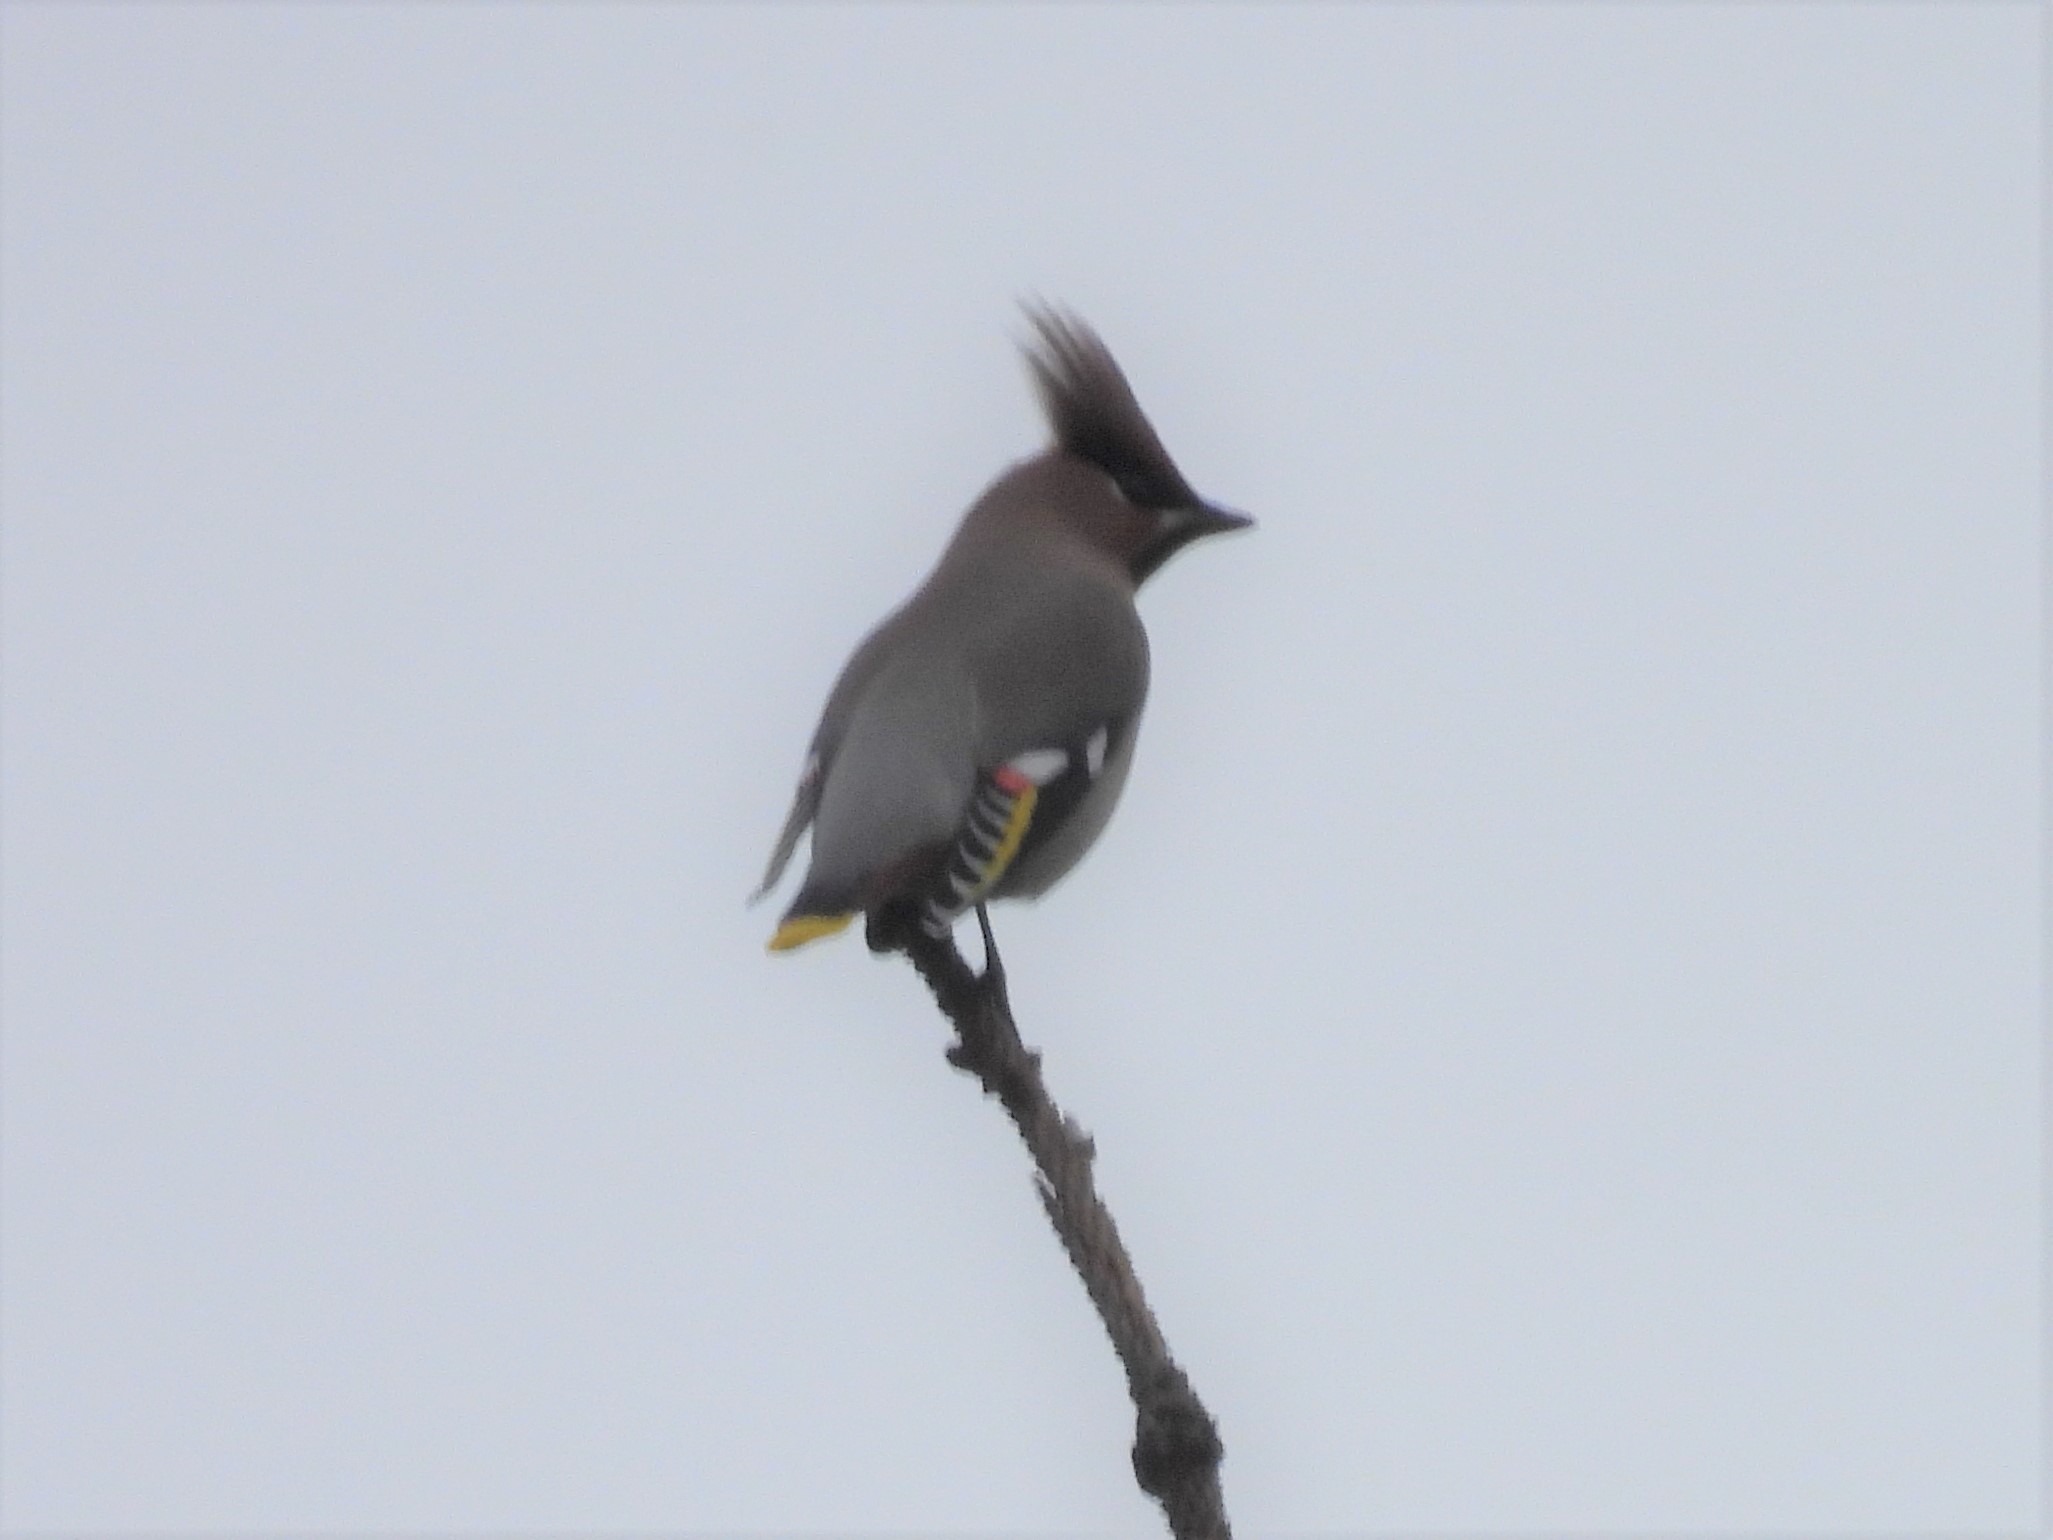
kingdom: Animalia
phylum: Chordata
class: Aves
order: Passeriformes
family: Bombycillidae
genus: Bombycilla
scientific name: Bombycilla garrulus
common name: Silkehale
